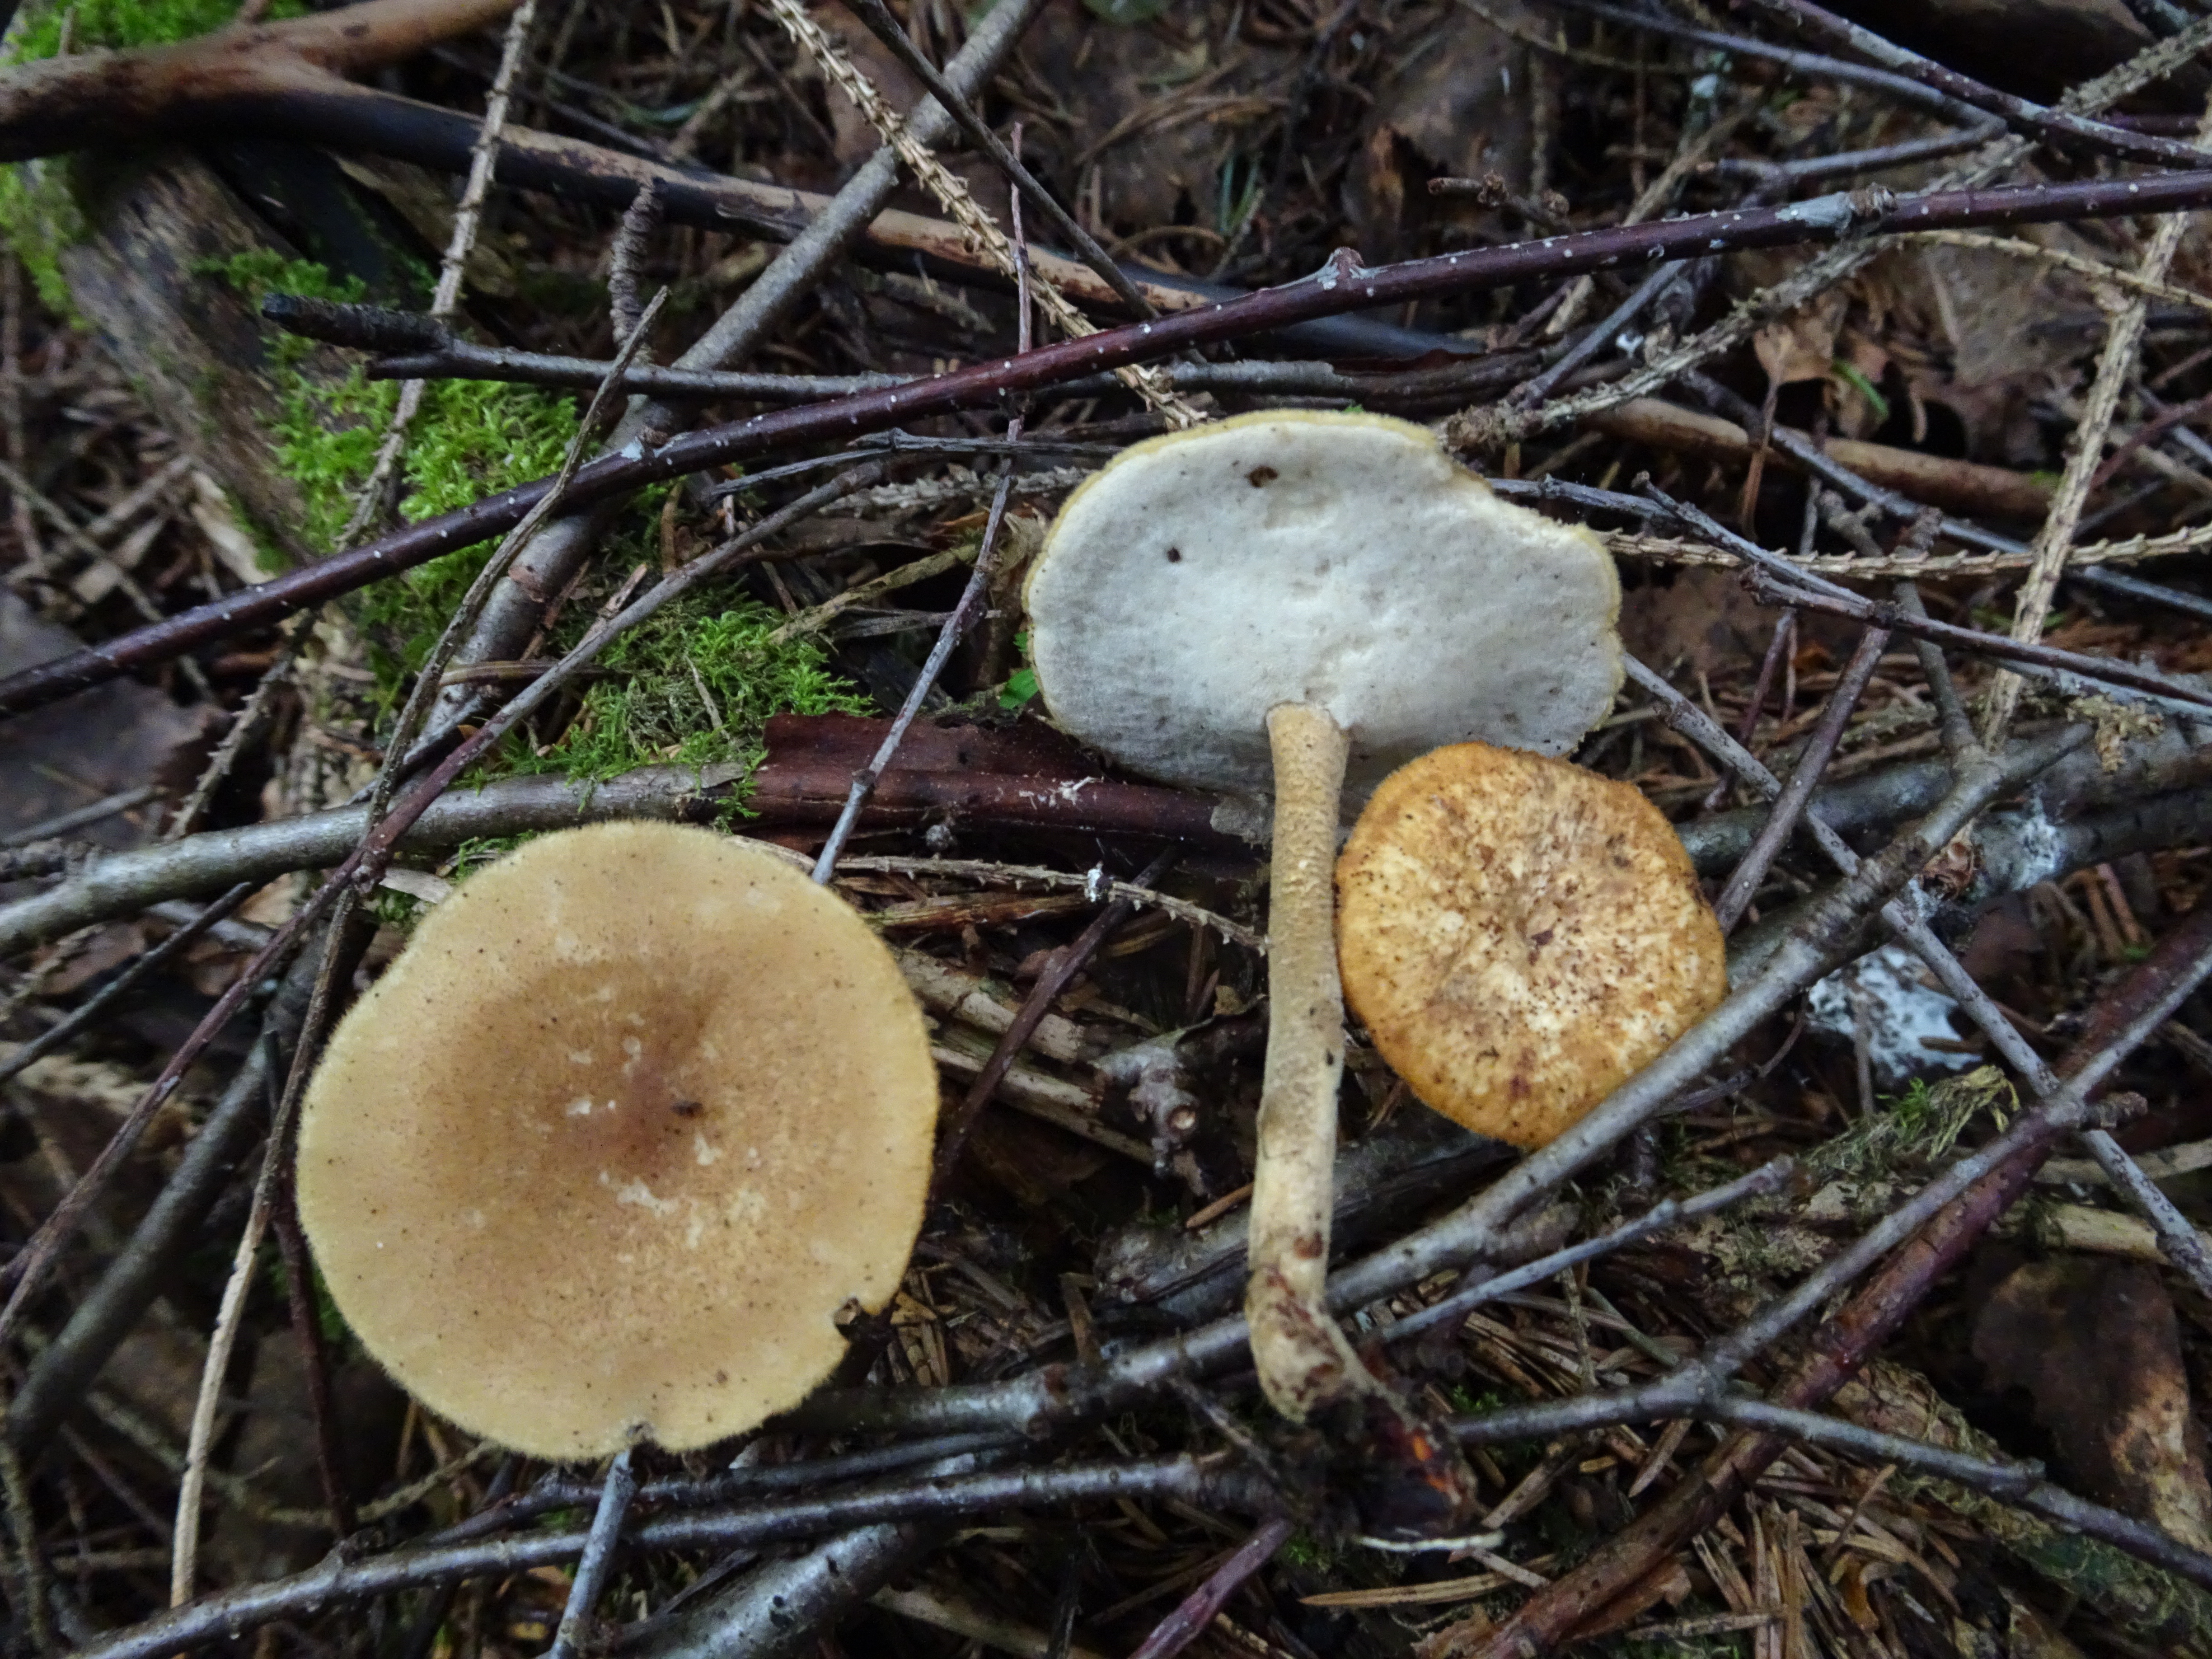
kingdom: Fungi
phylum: Basidiomycota
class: Agaricomycetes
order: Polyporales
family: Polyporaceae
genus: Lentinus
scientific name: Lentinus substrictus
